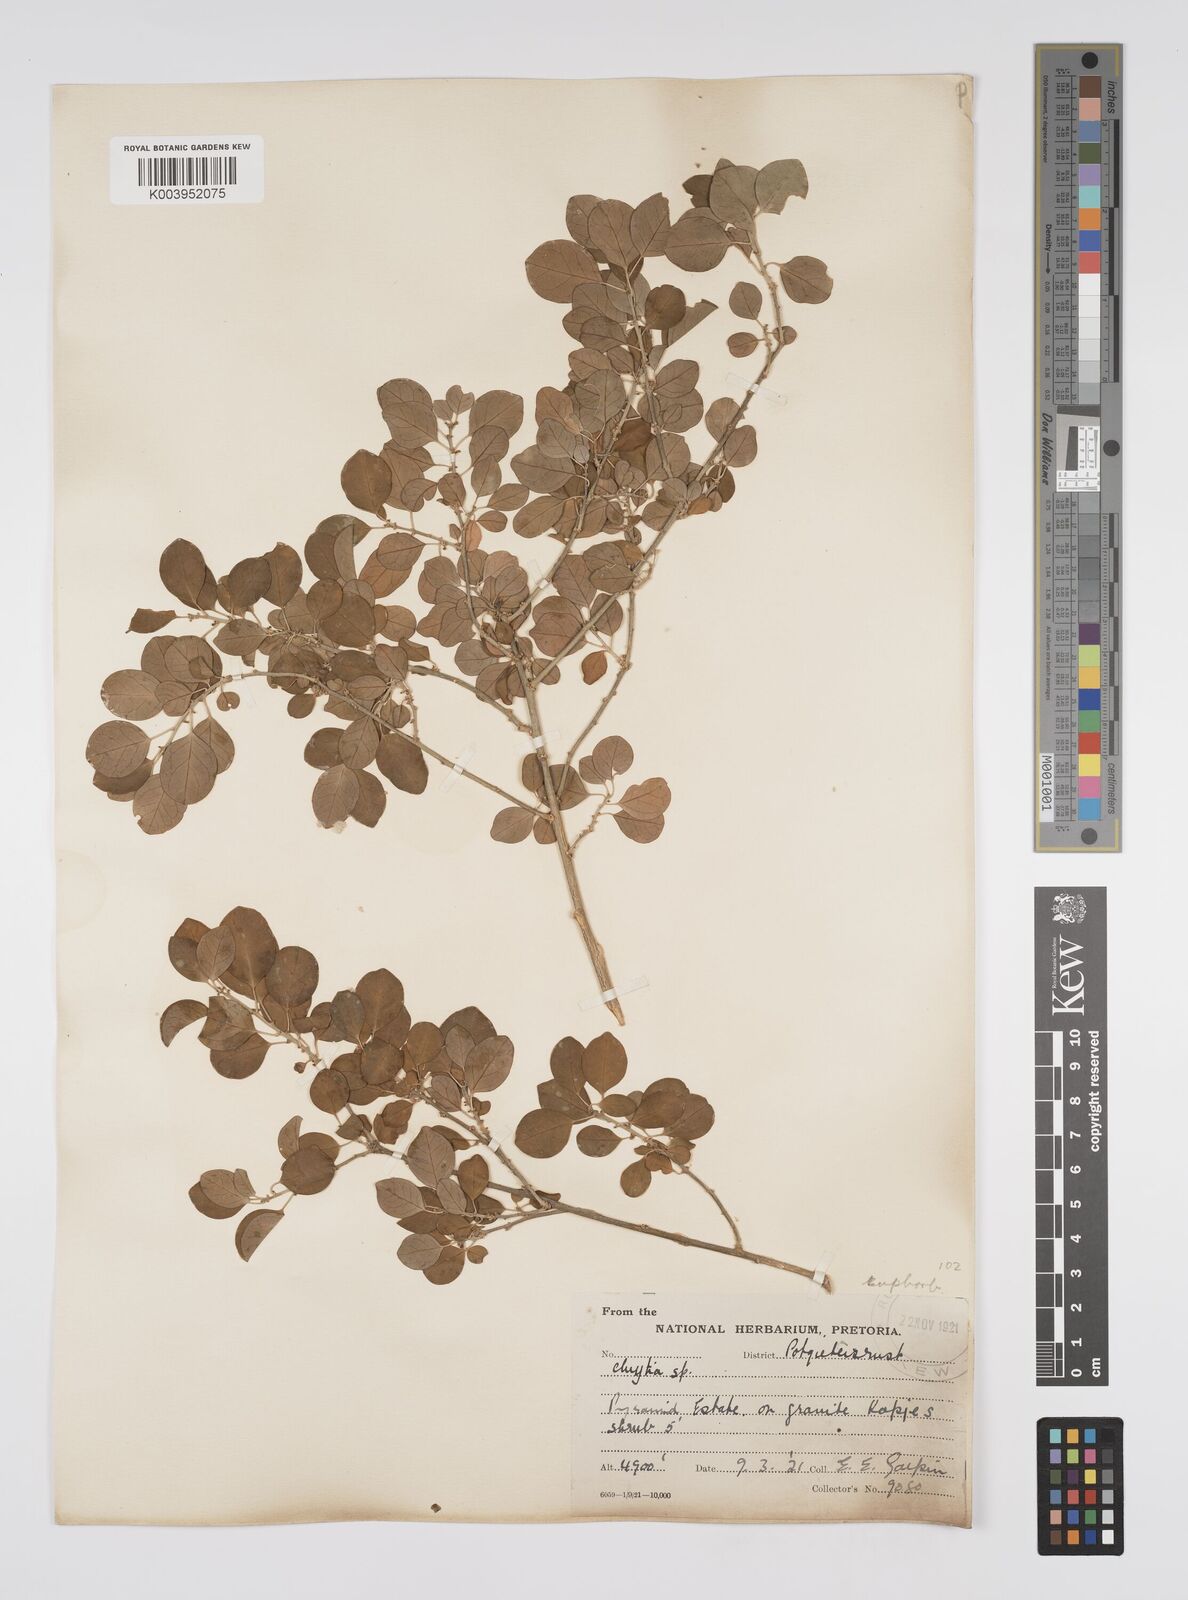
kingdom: Plantae
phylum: Tracheophyta
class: Magnoliopsida
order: Malpighiales
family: Peraceae
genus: Clutia
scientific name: Clutia
